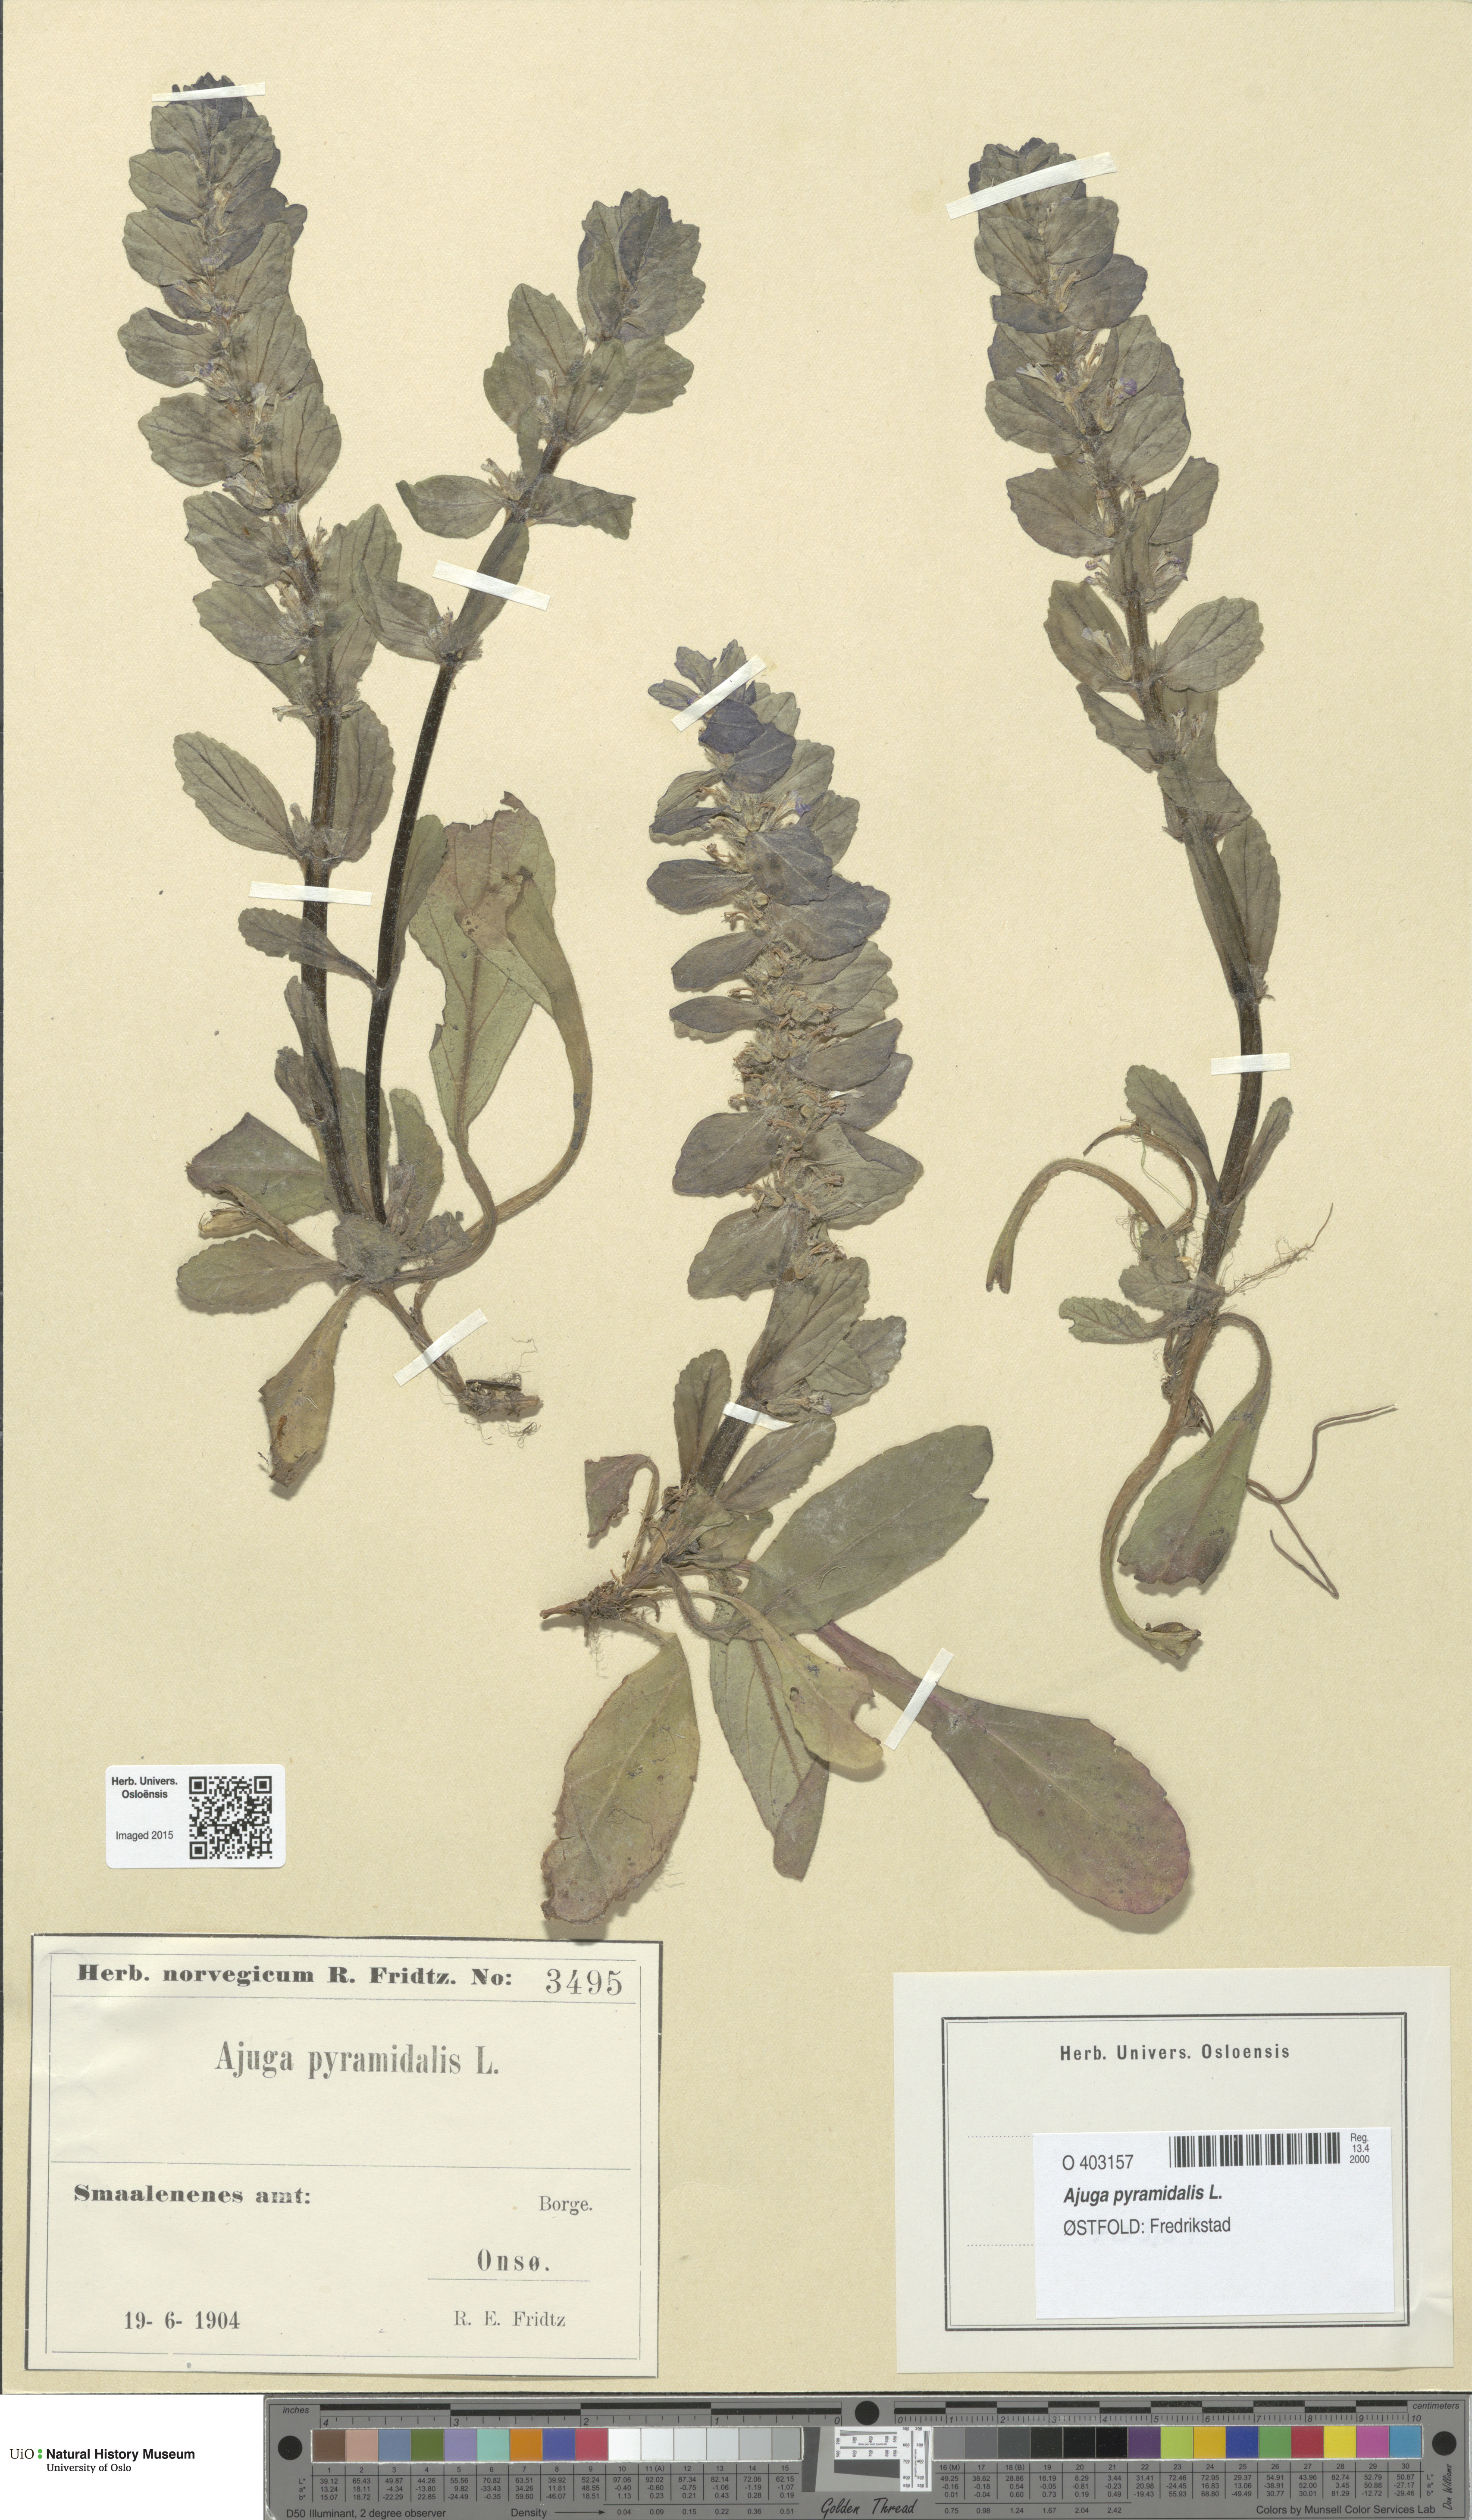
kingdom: Plantae
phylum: Tracheophyta
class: Magnoliopsida
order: Lamiales
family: Lamiaceae
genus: Ajuga
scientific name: Ajuga pyramidalis
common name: Pyramid bugle
